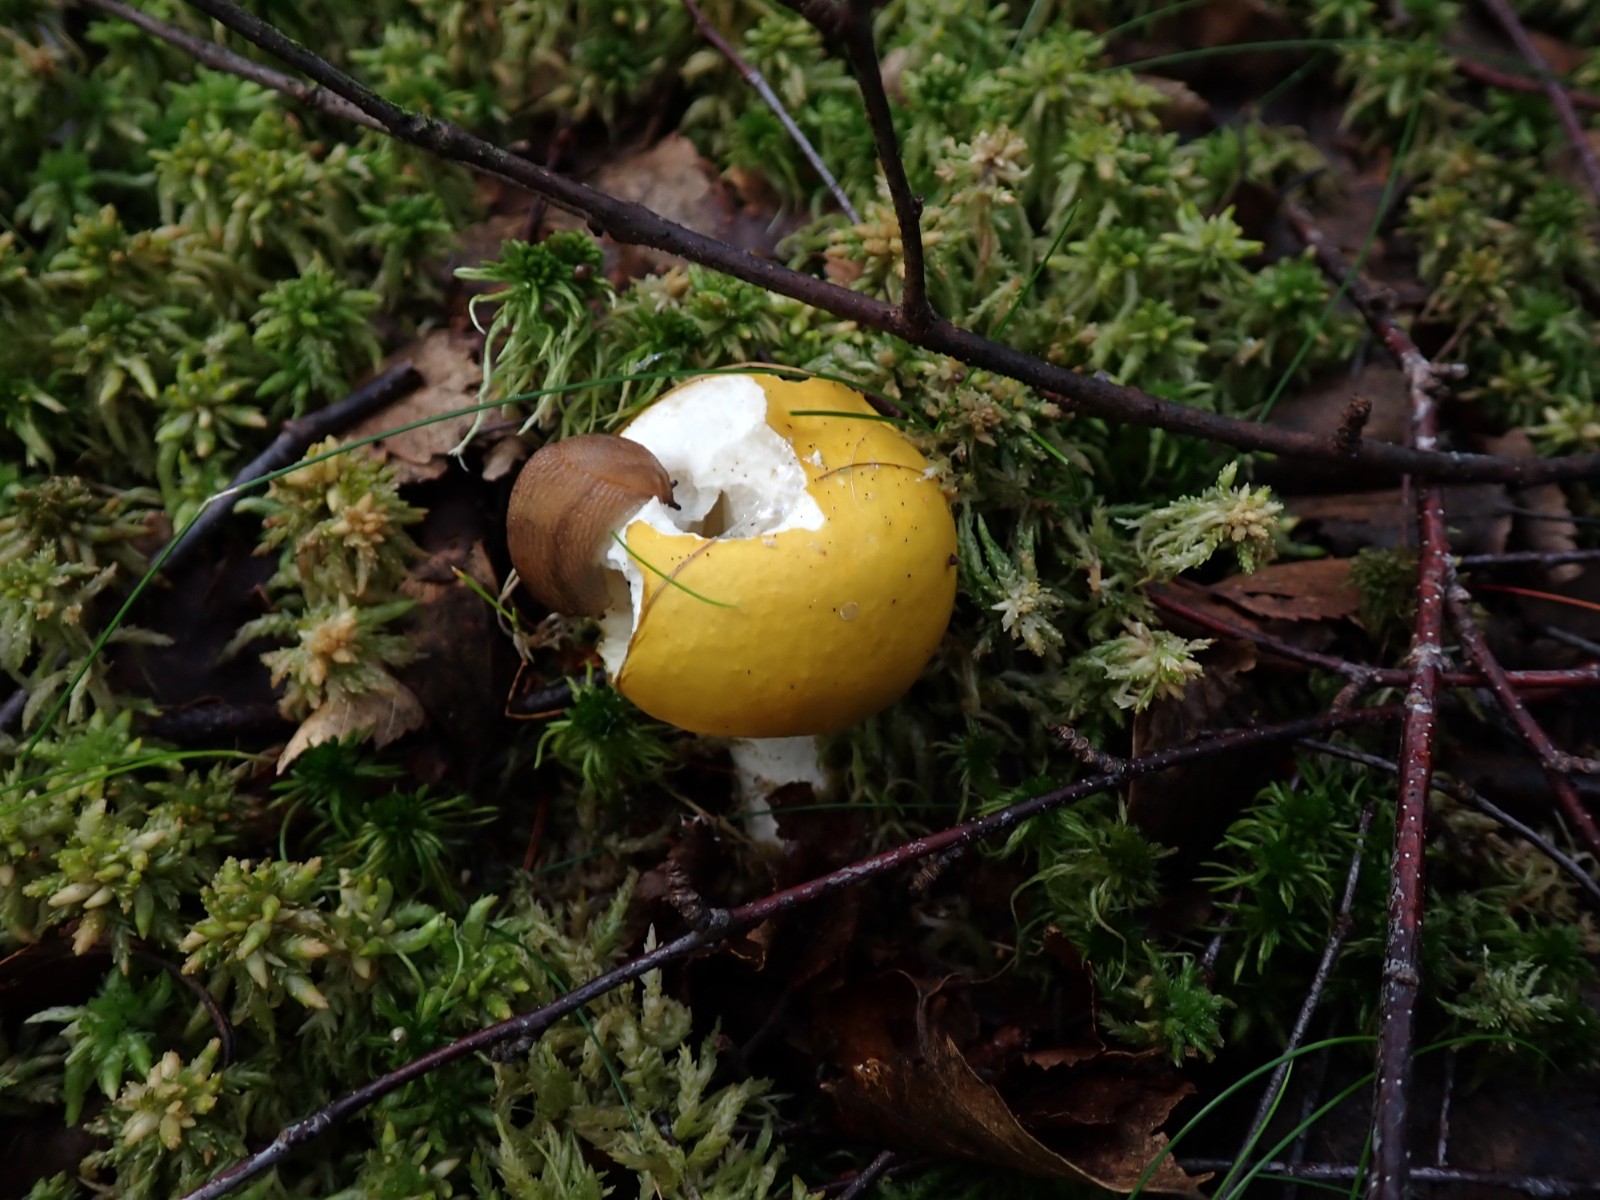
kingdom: Fungi
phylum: Basidiomycota
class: Agaricomycetes
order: Russulales
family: Russulaceae
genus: Russula
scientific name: Russula claroflava
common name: birke-skørhat
